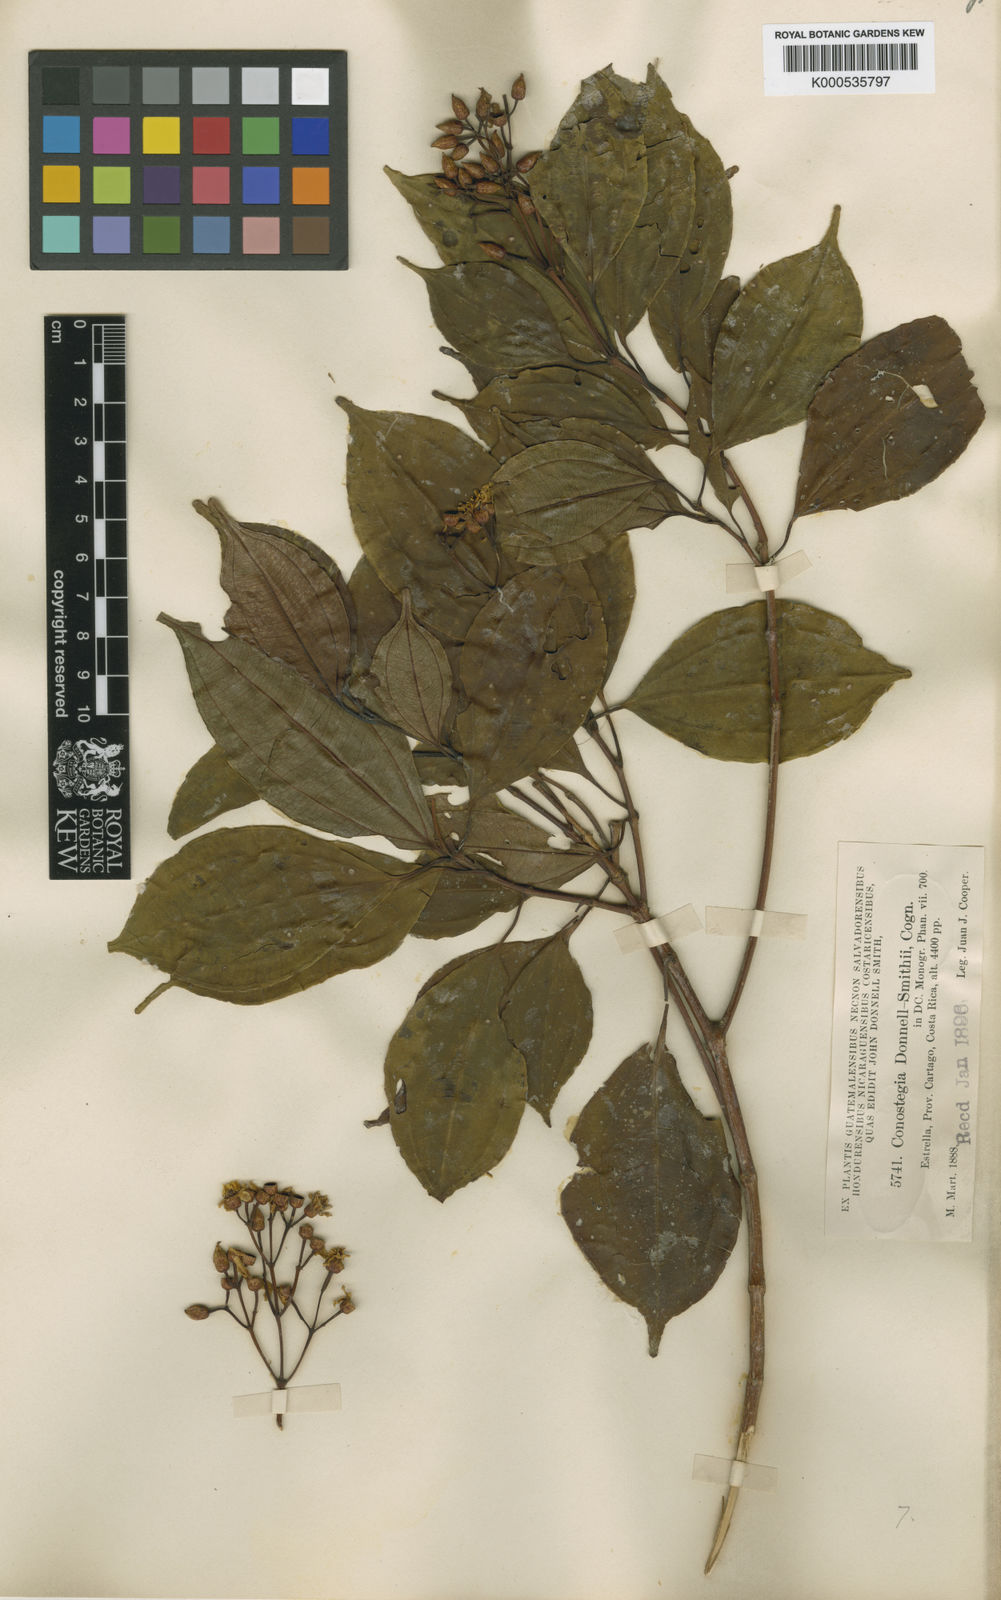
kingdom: Plantae
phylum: Tracheophyta
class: Magnoliopsida
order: Myrtales
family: Melastomataceae
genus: Miconia
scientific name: Miconia durandii
